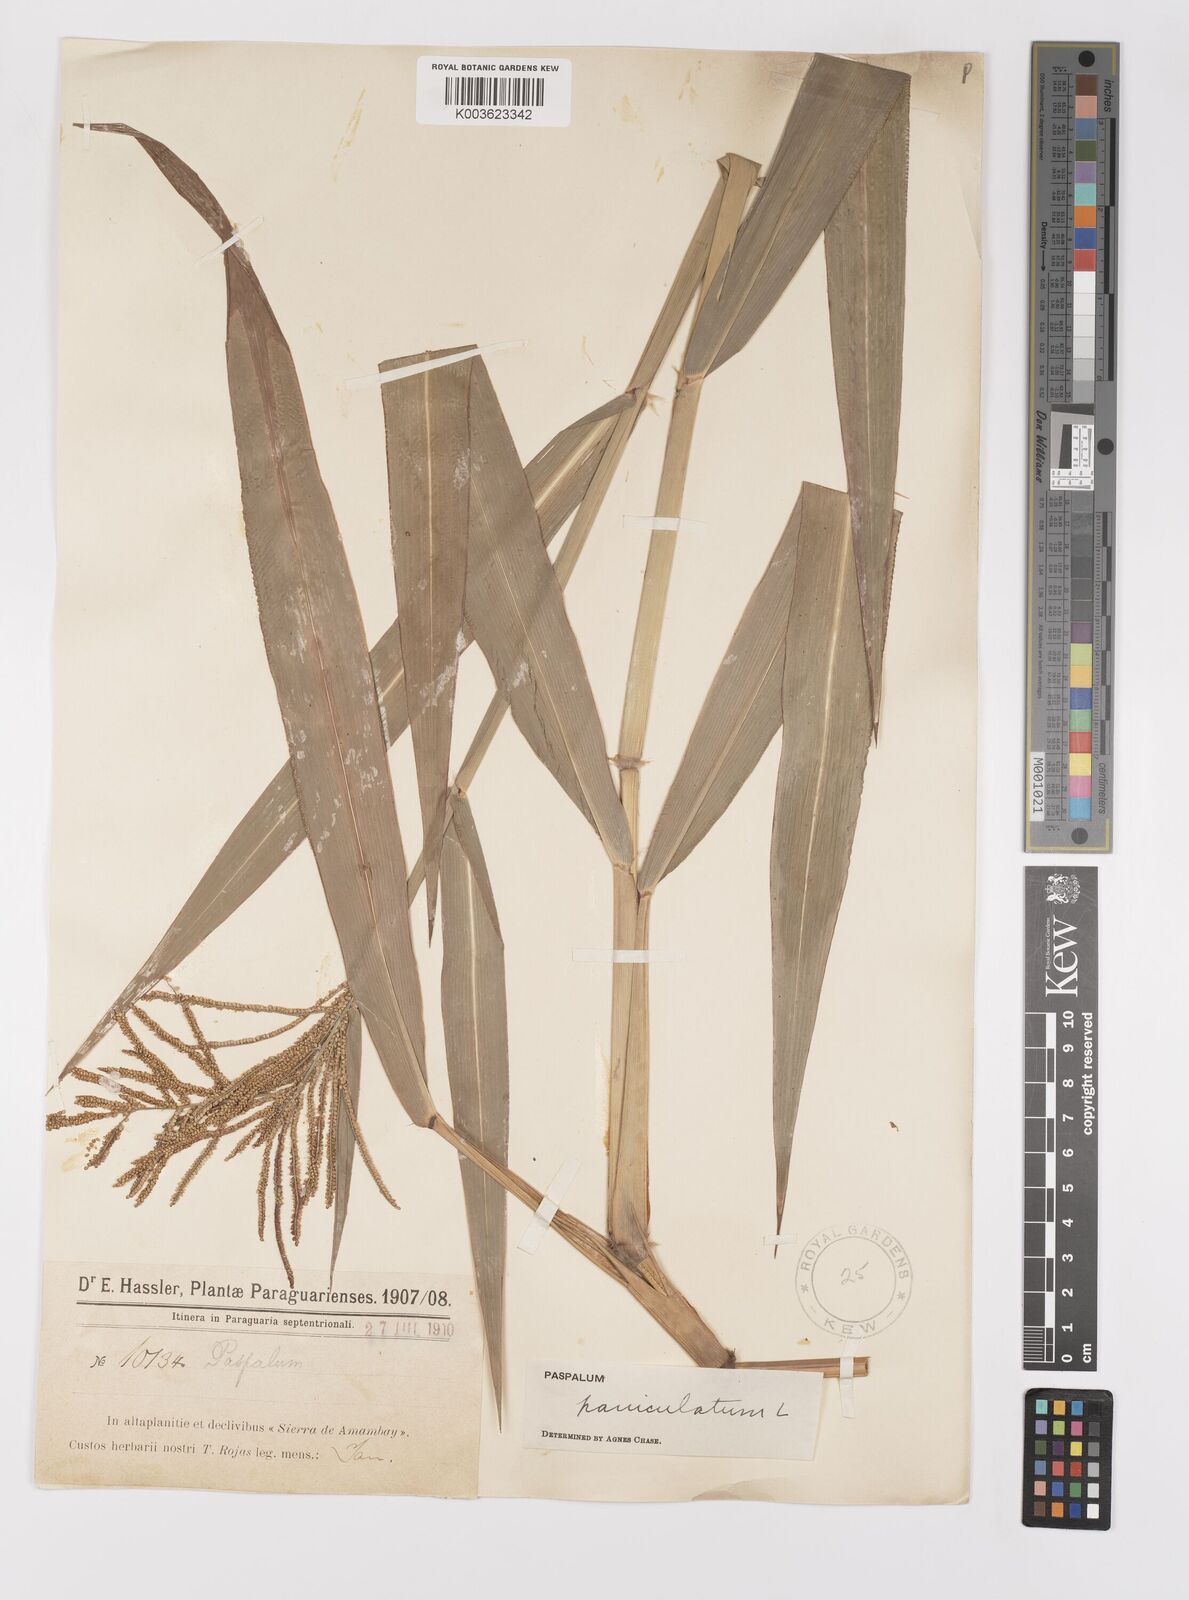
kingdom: Plantae
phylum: Tracheophyta
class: Liliopsida
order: Poales
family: Poaceae
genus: Paspalum
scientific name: Paspalum paniculatum
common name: Arrocillo
